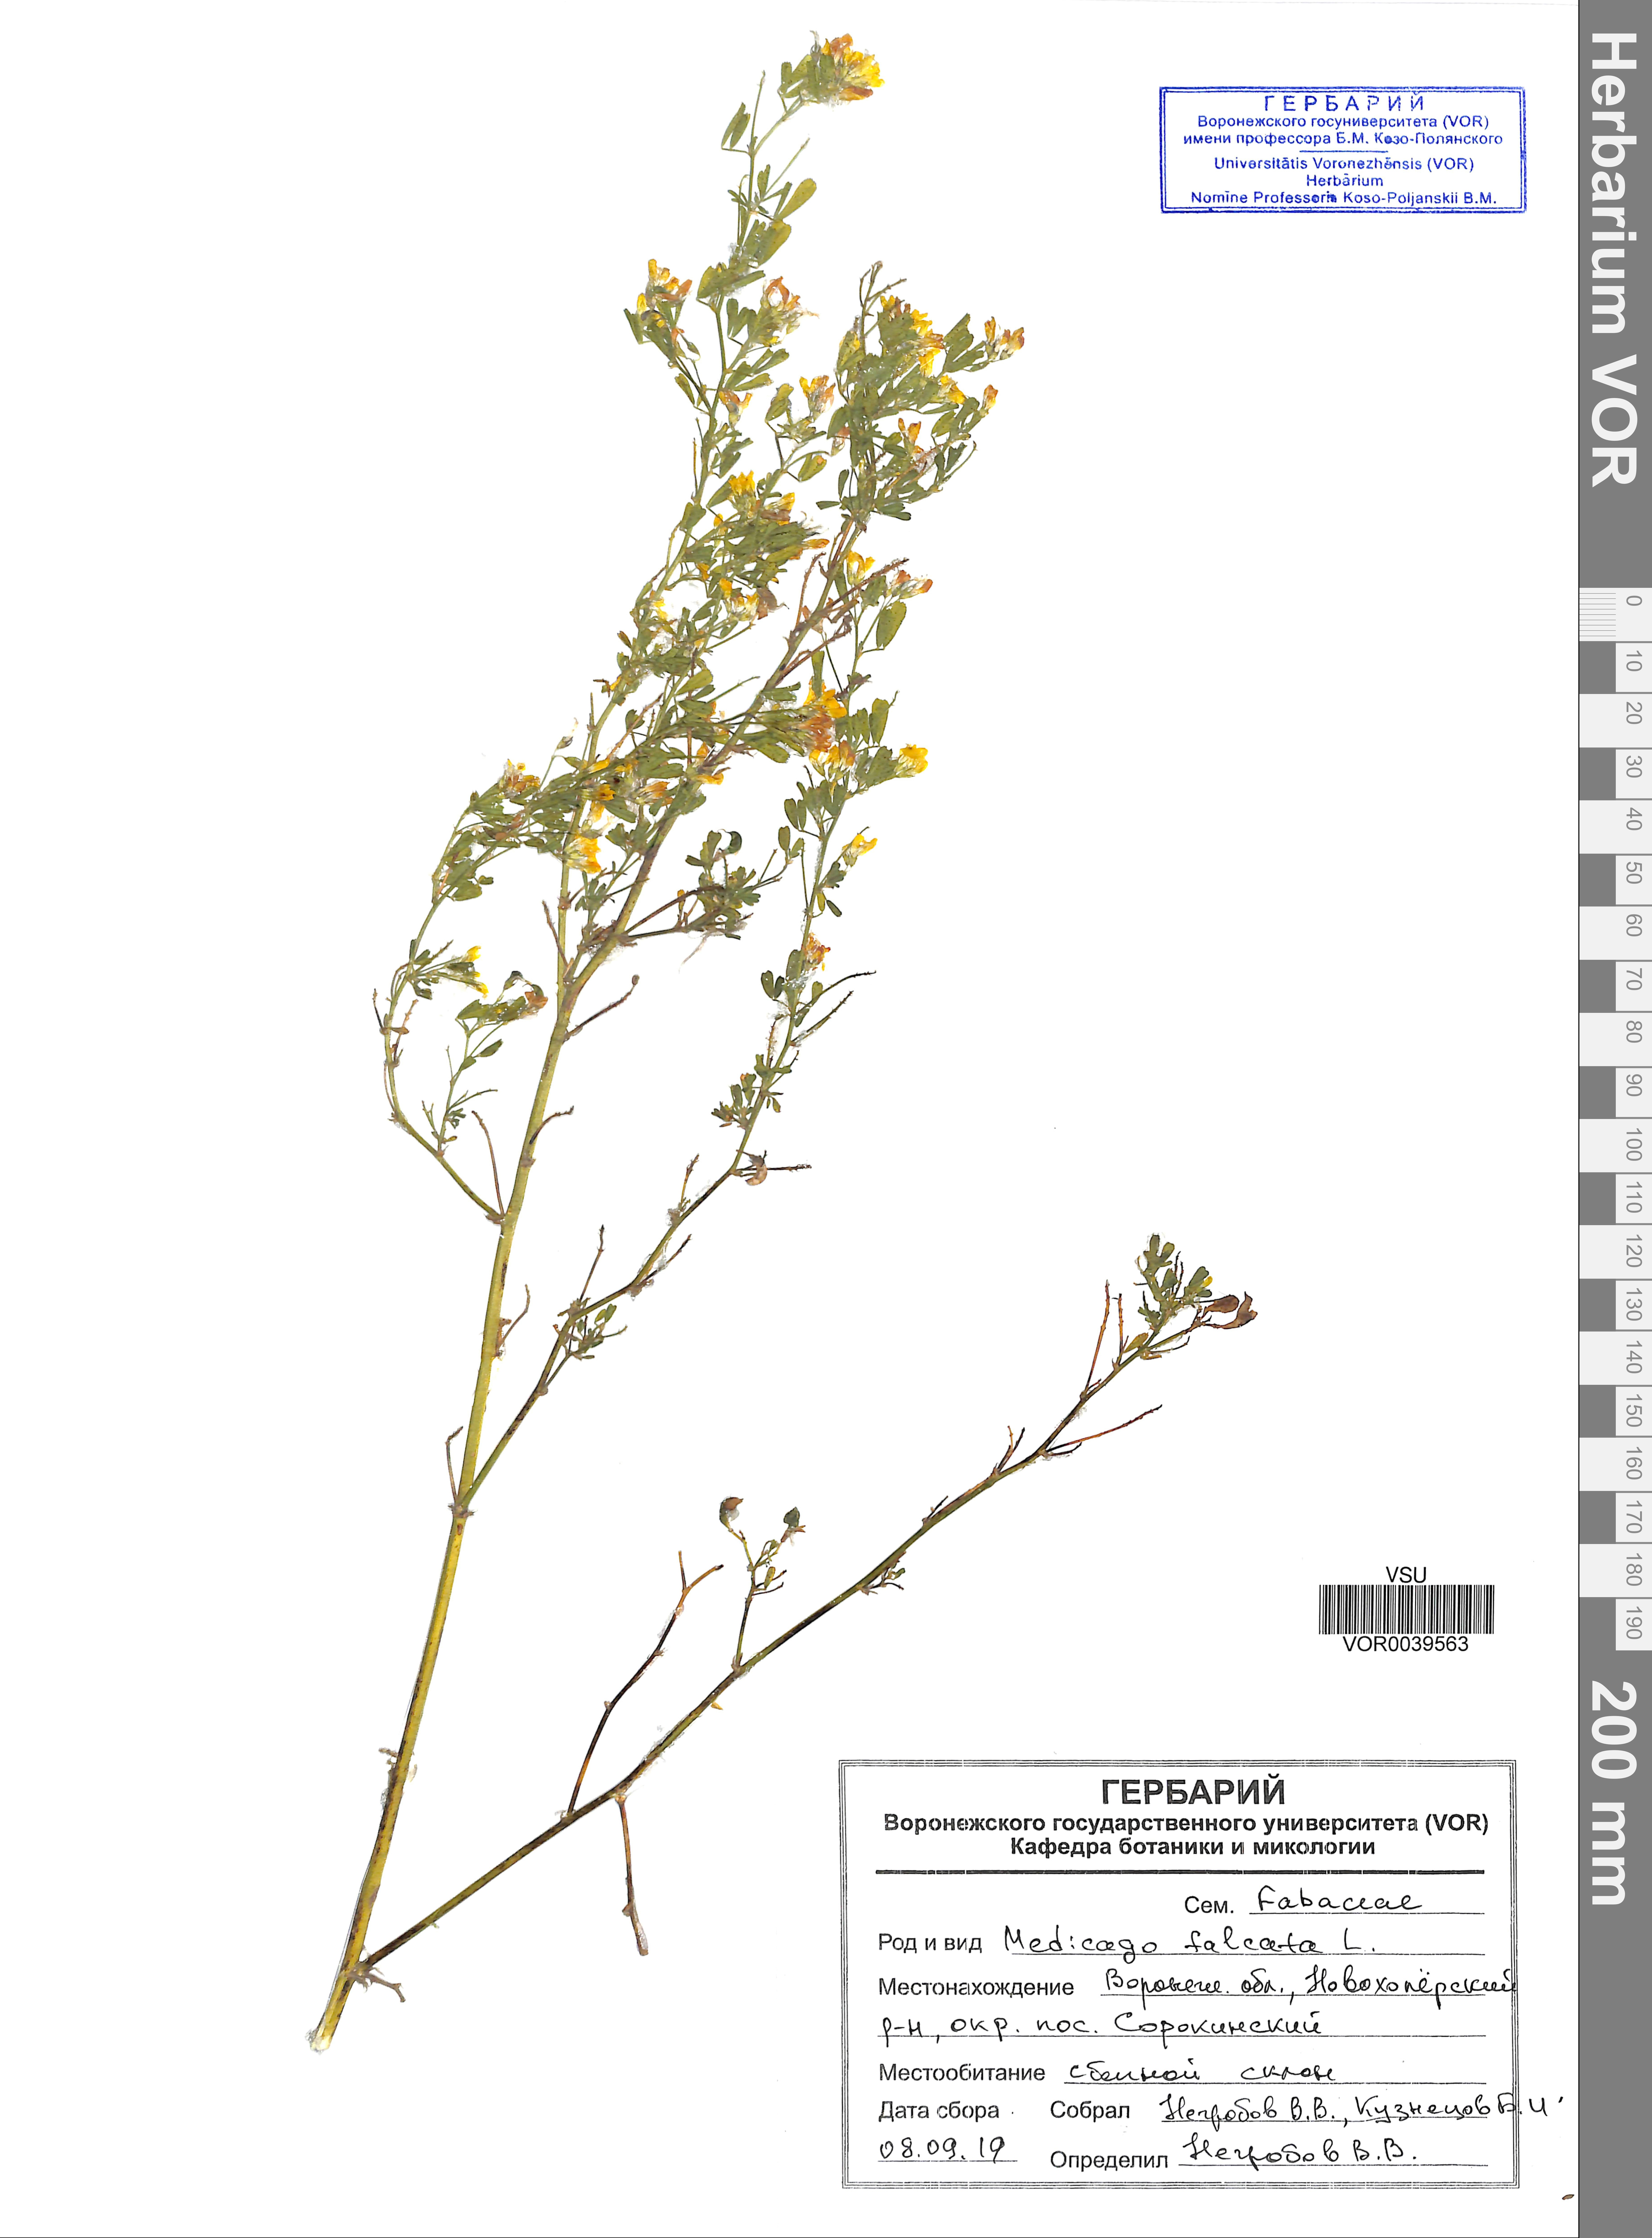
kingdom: Plantae
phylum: Tracheophyta
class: Magnoliopsida
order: Fabales
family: Fabaceae
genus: Medicago
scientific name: Medicago falcata
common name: Sickle medick
